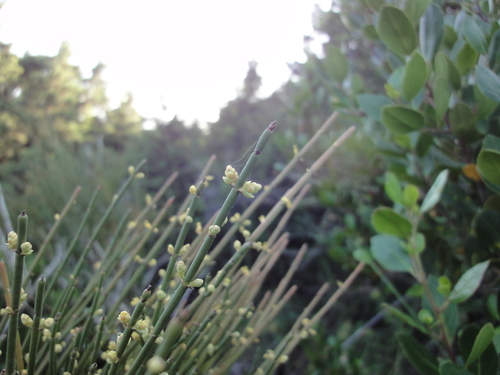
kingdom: Plantae
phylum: Tracheophyta
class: Gnetopsida
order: Ephedrales
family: Ephedraceae
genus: Ephedra
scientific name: Ephedra fragilis
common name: Joint pine
